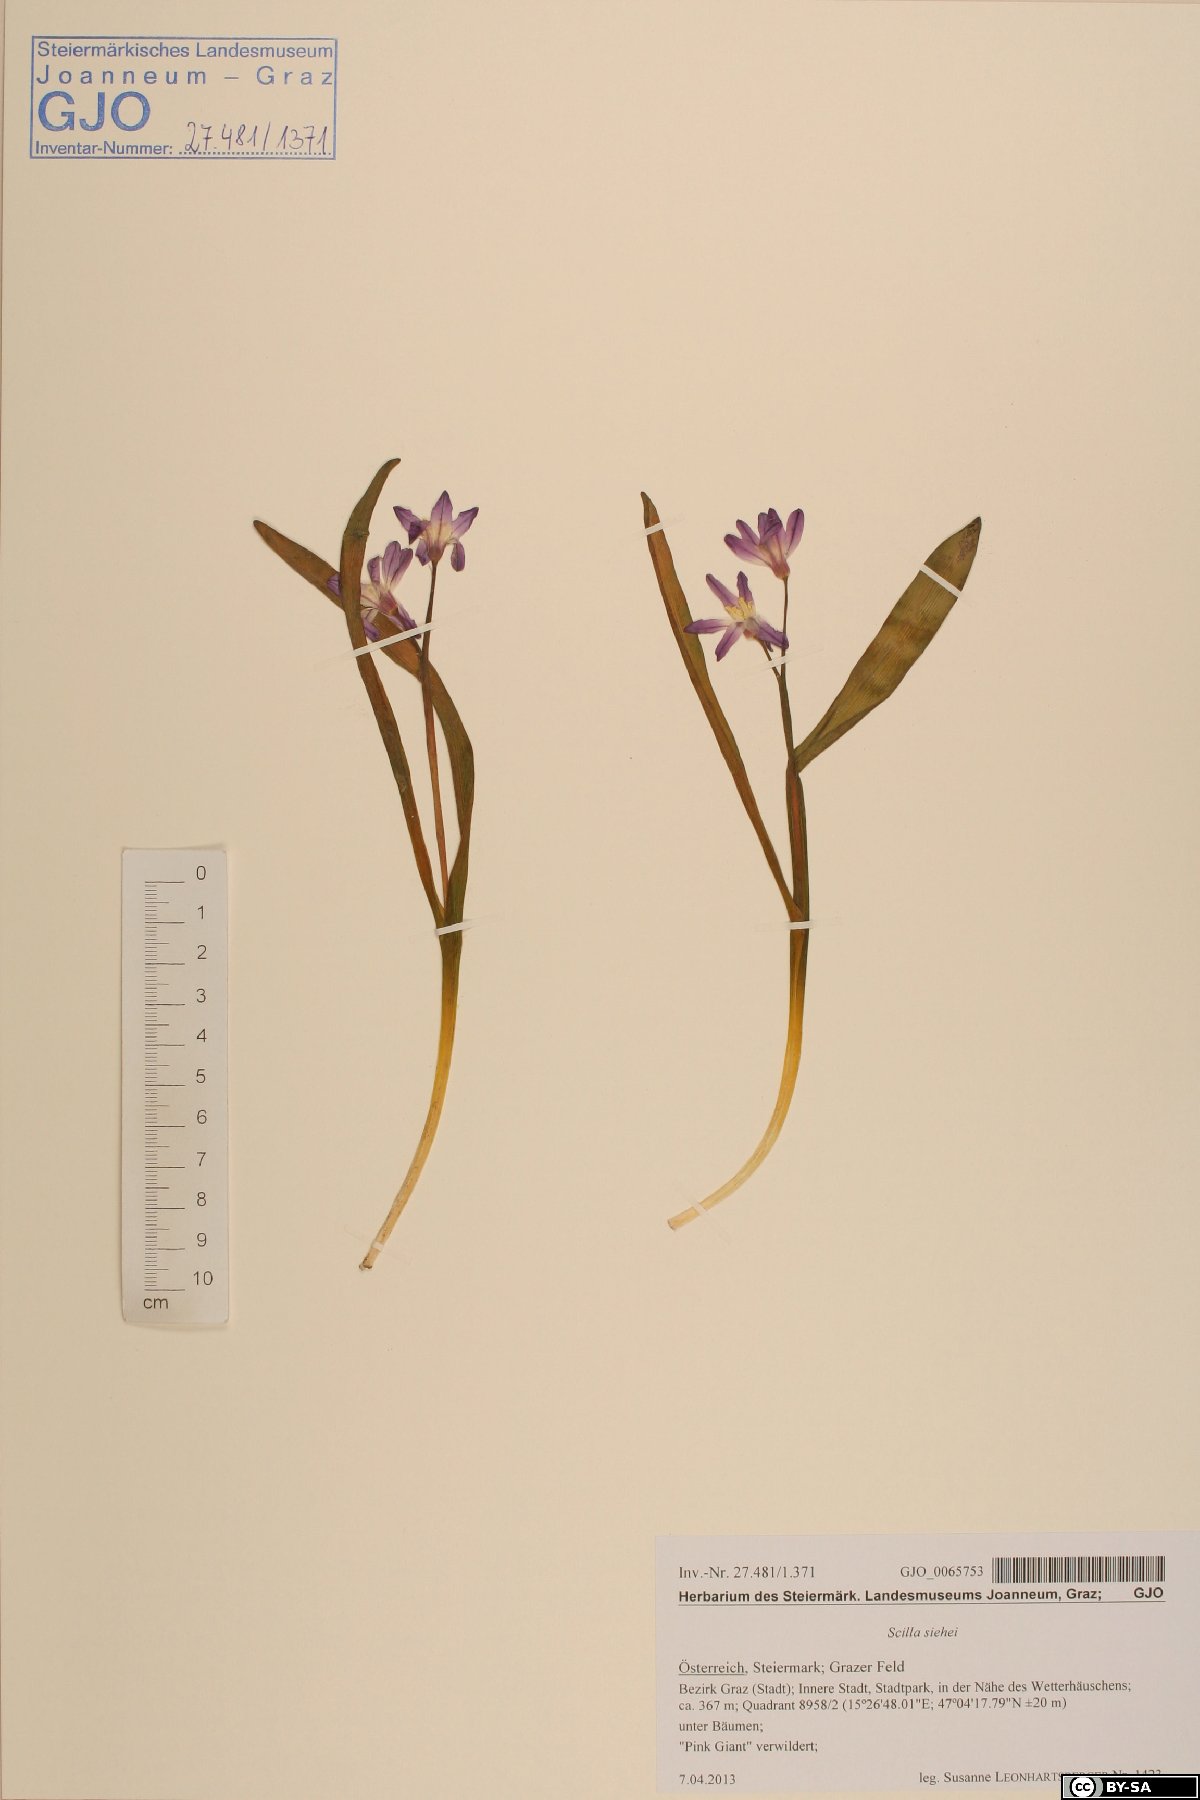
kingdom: Plantae
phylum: Tracheophyta
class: Liliopsida
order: Asparagales
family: Asparagaceae
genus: Scilla
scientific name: Scilla forbesii
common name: Glory-of-the-snow
